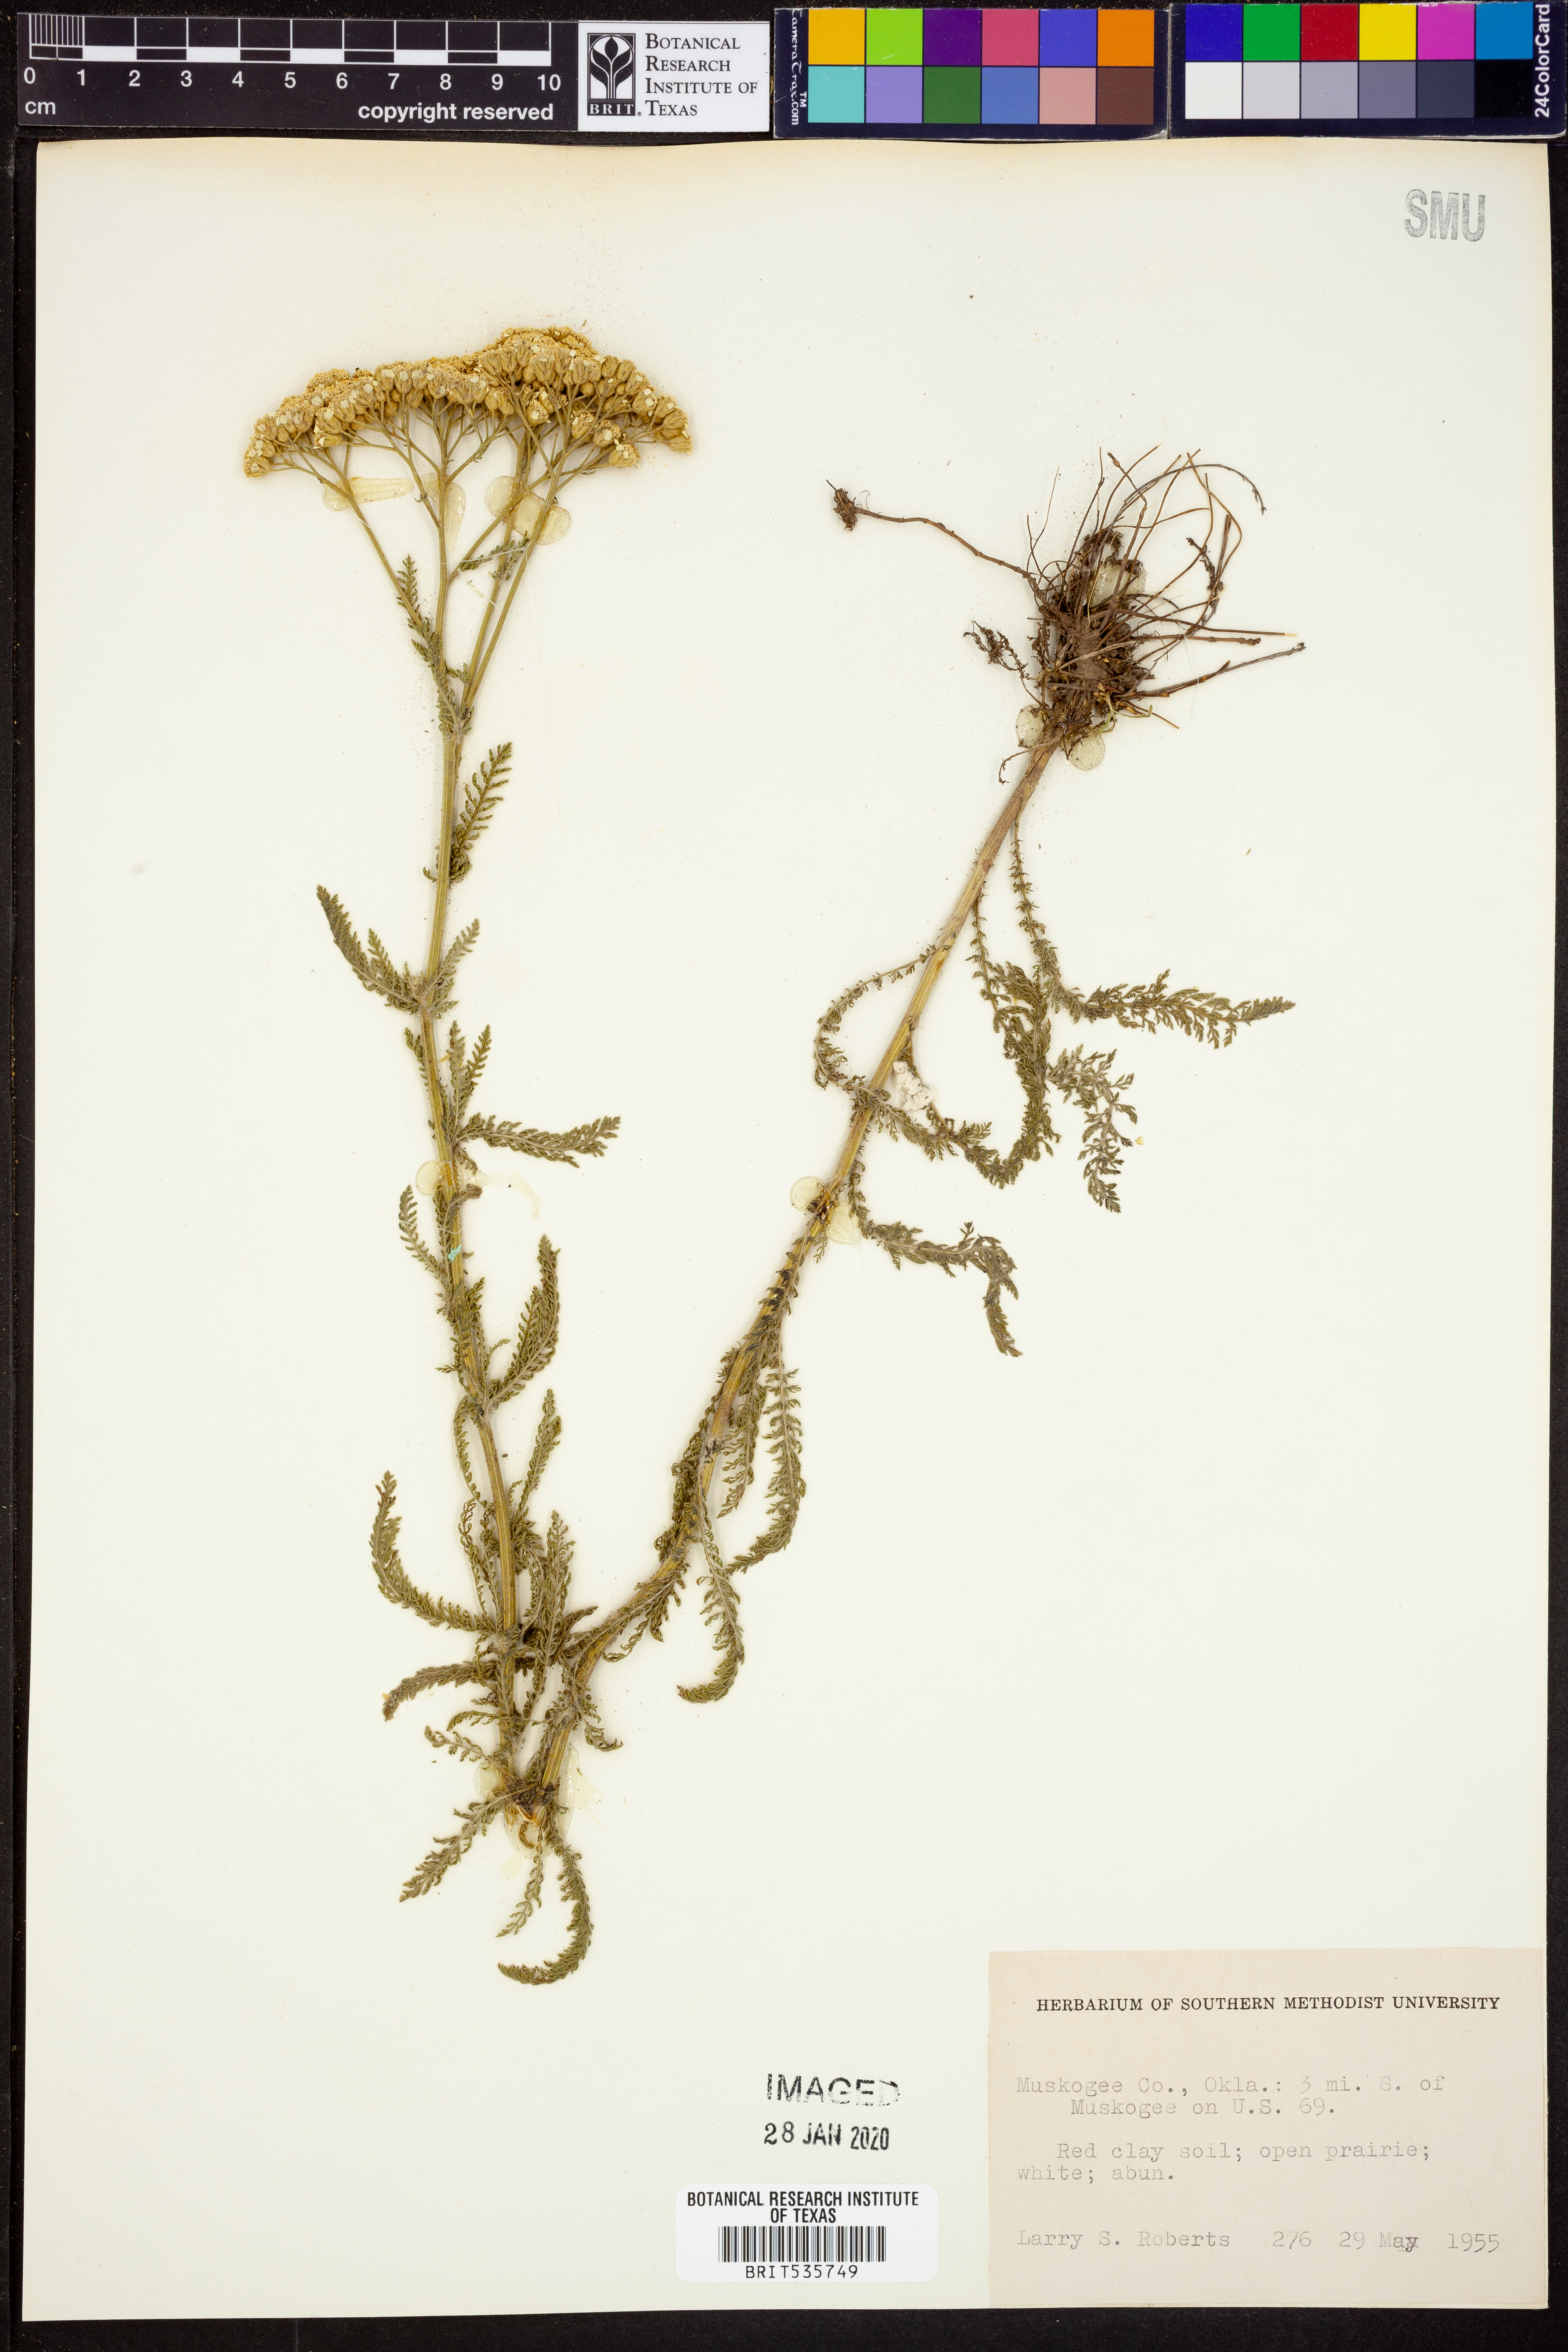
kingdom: Plantae
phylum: Tracheophyta
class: Magnoliopsida
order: Asterales
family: Asteraceae
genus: Achillea
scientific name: Achillea
